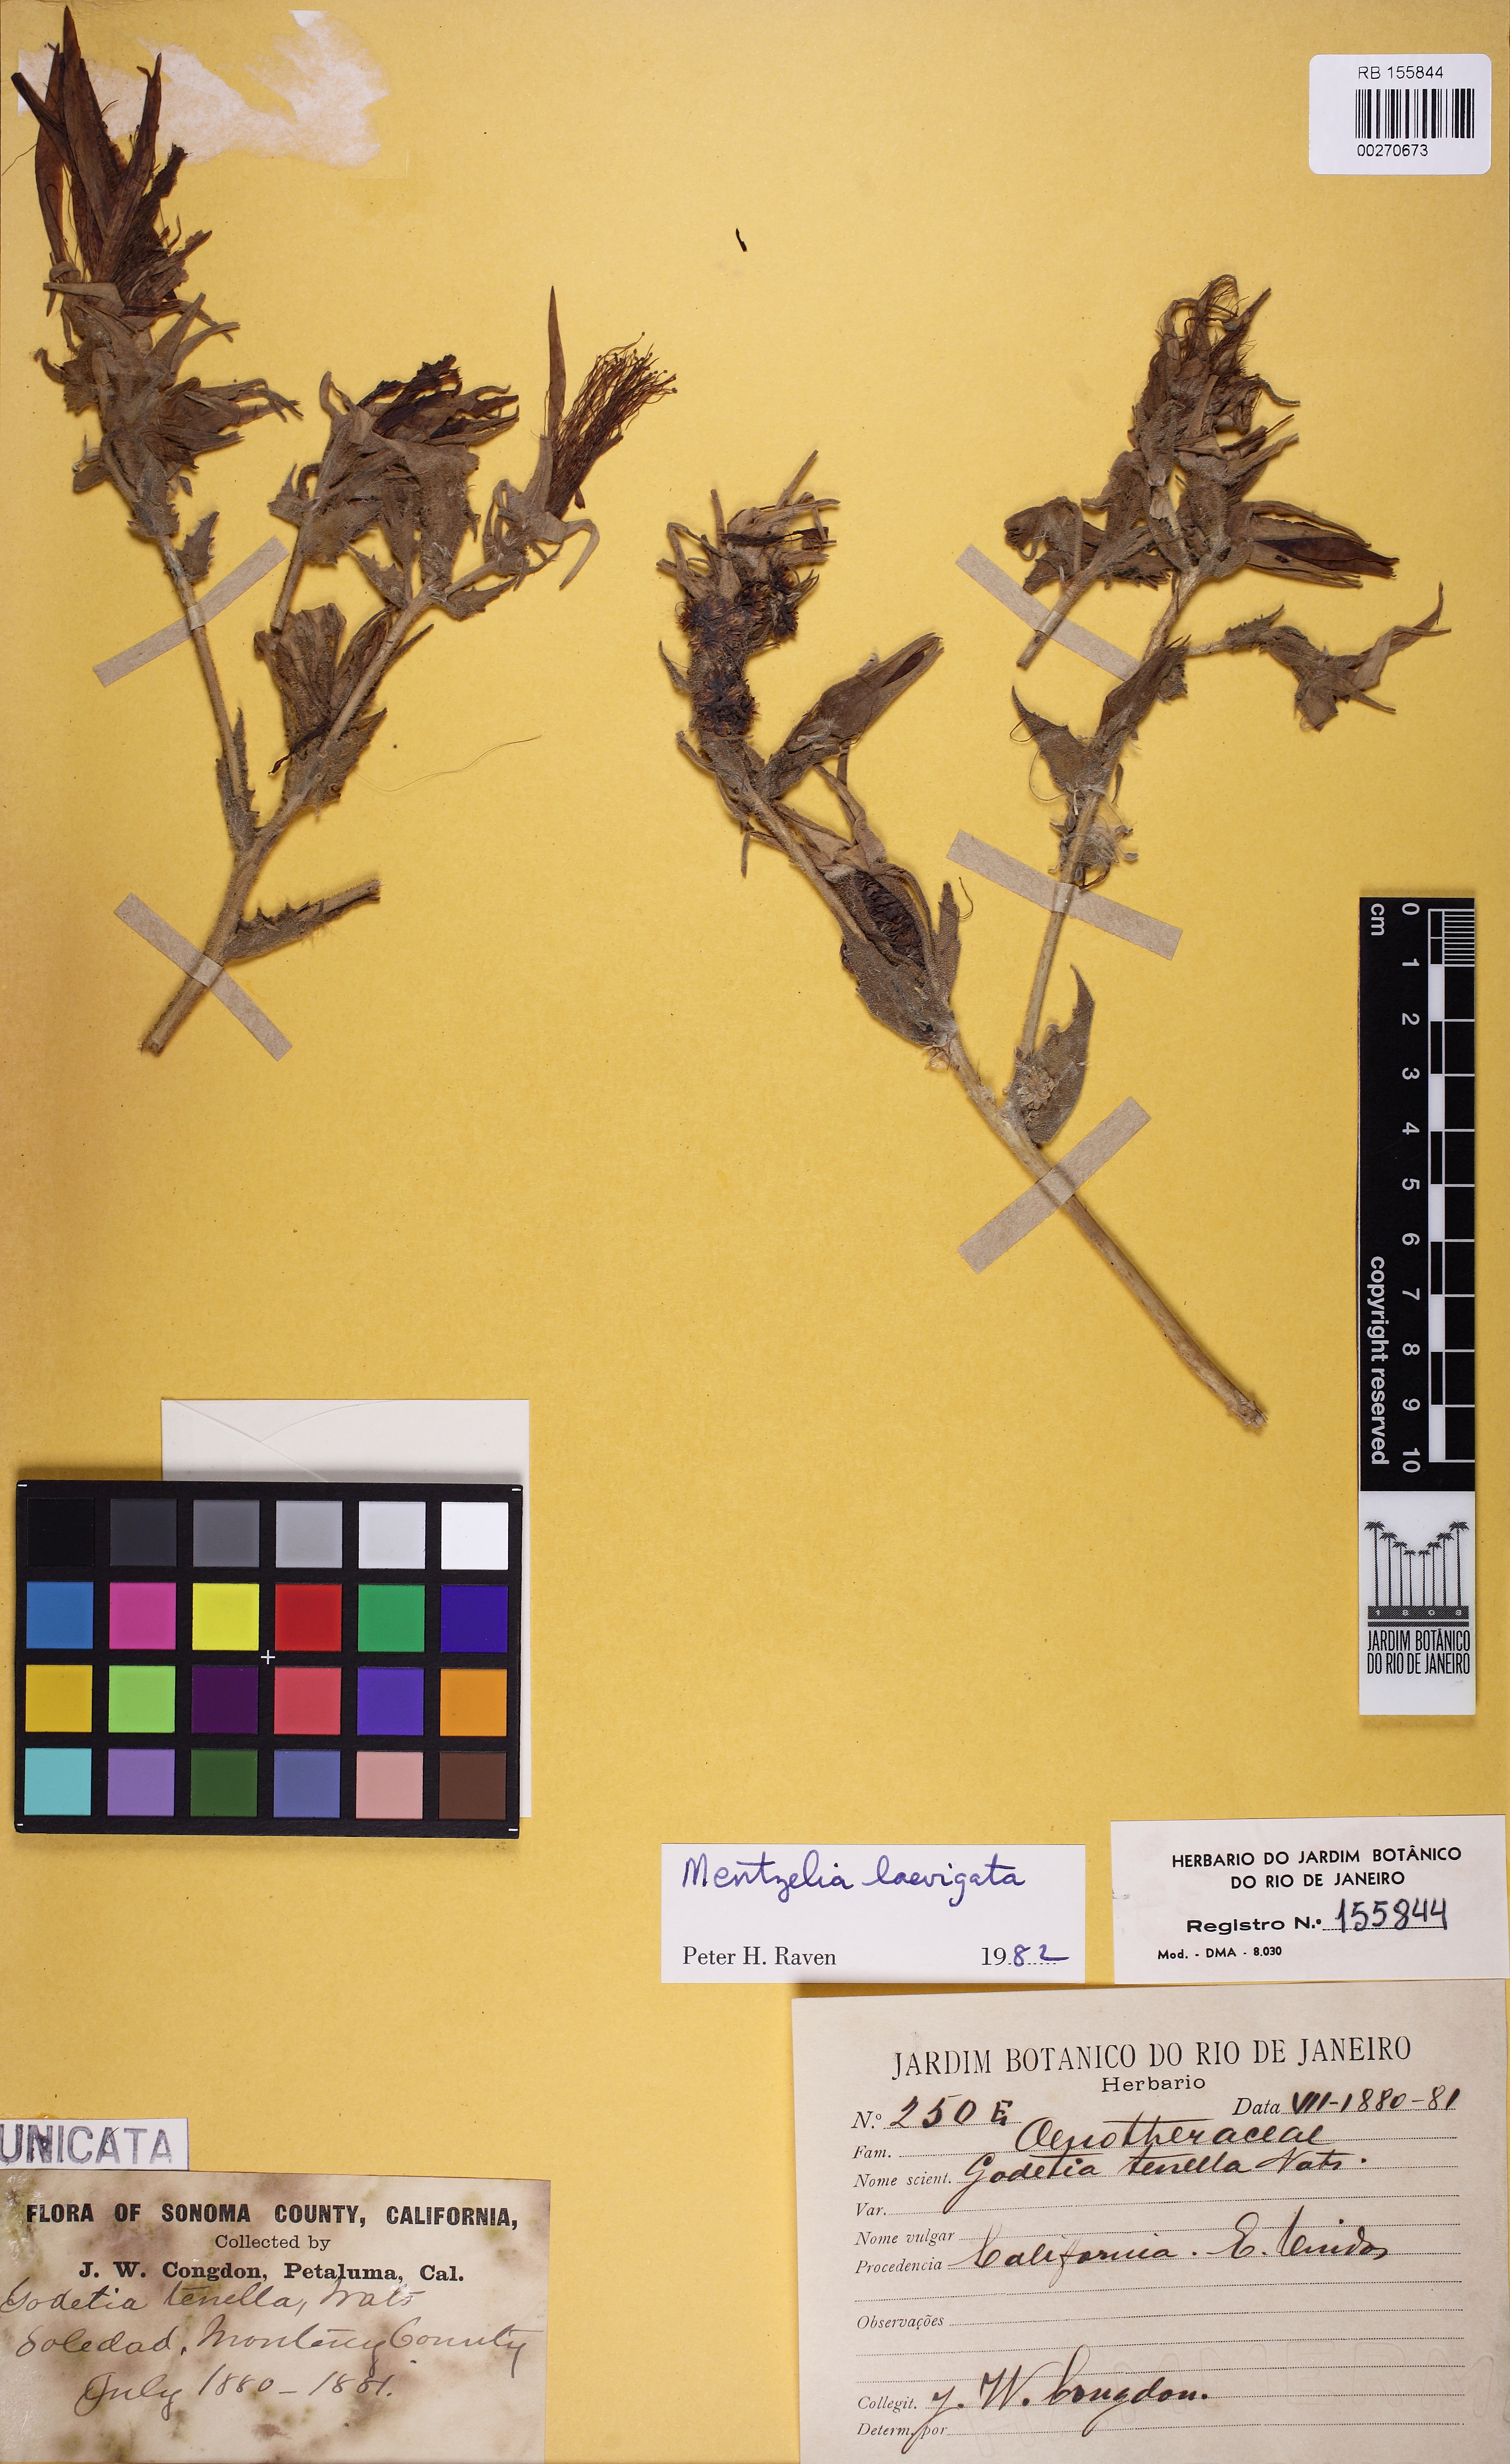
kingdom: Plantae
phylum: Tracheophyta
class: Magnoliopsida
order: Myrtales
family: Onagraceae
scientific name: Onagraceae
